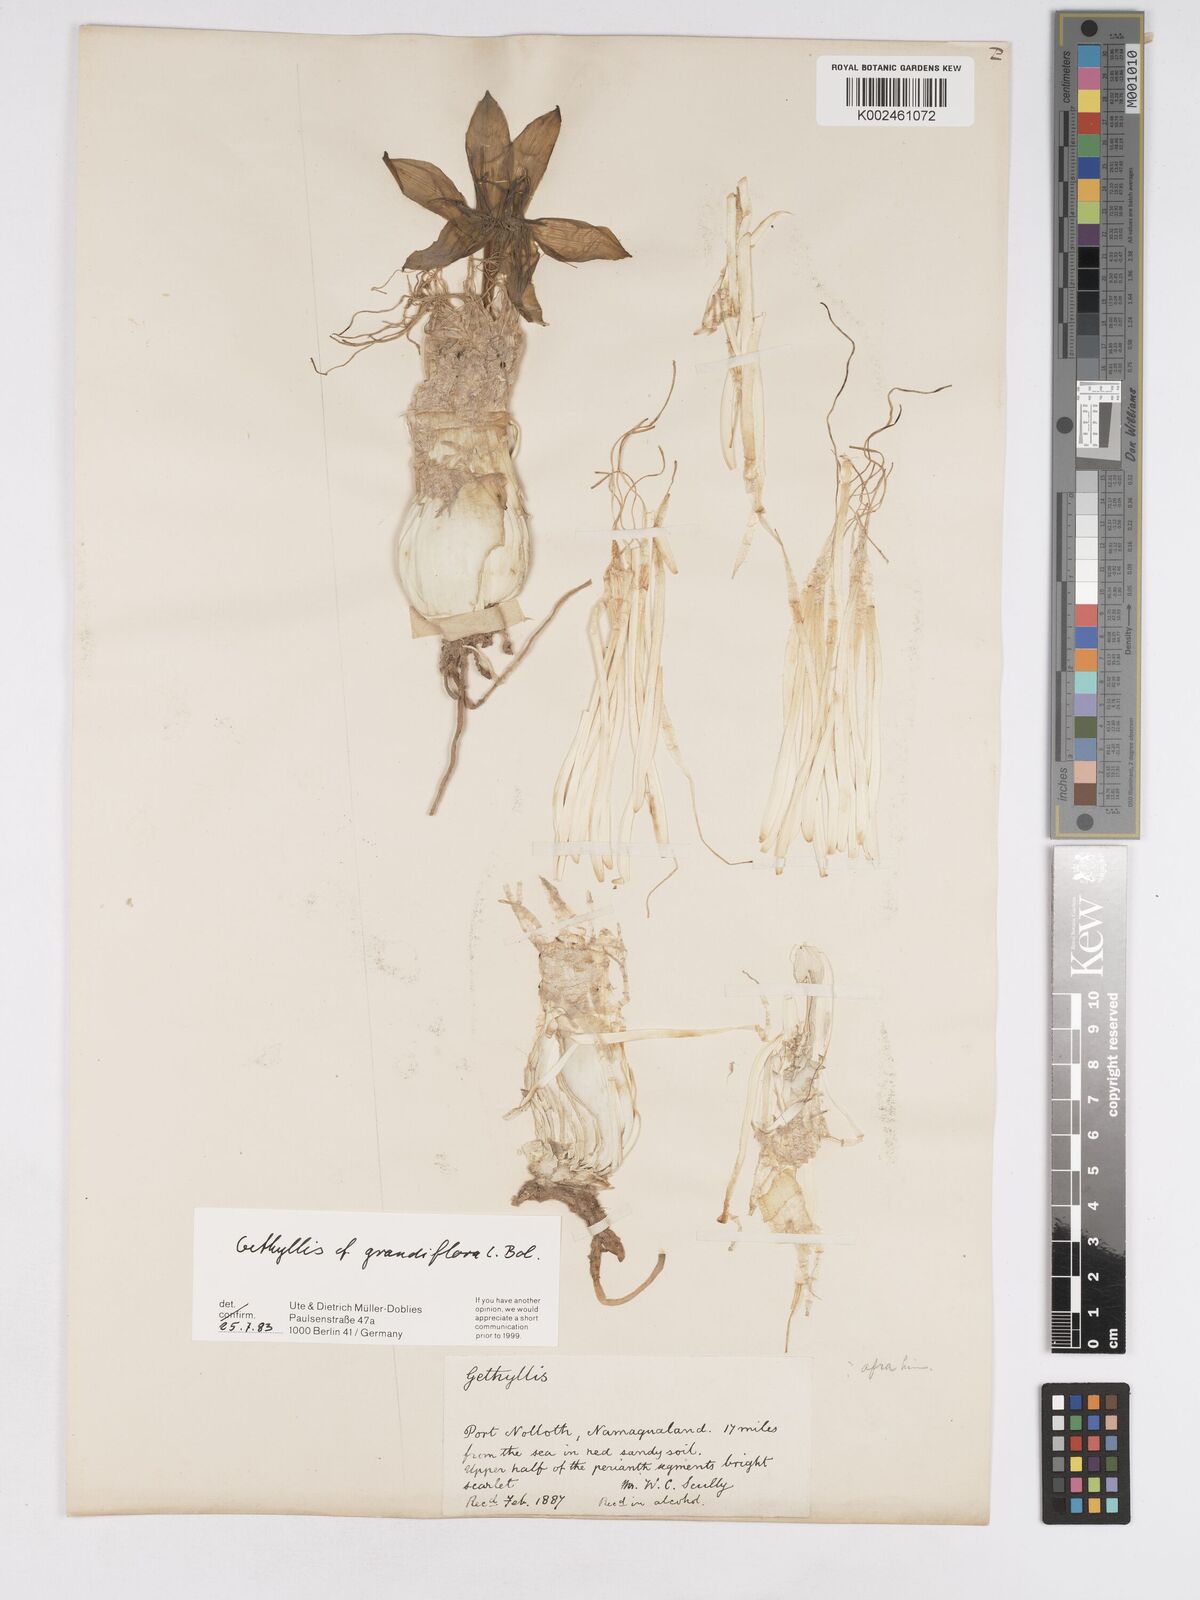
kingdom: Plantae
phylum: Tracheophyta
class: Liliopsida
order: Asparagales
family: Amaryllidaceae
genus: Gethyllis
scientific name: Gethyllis grandiflora
